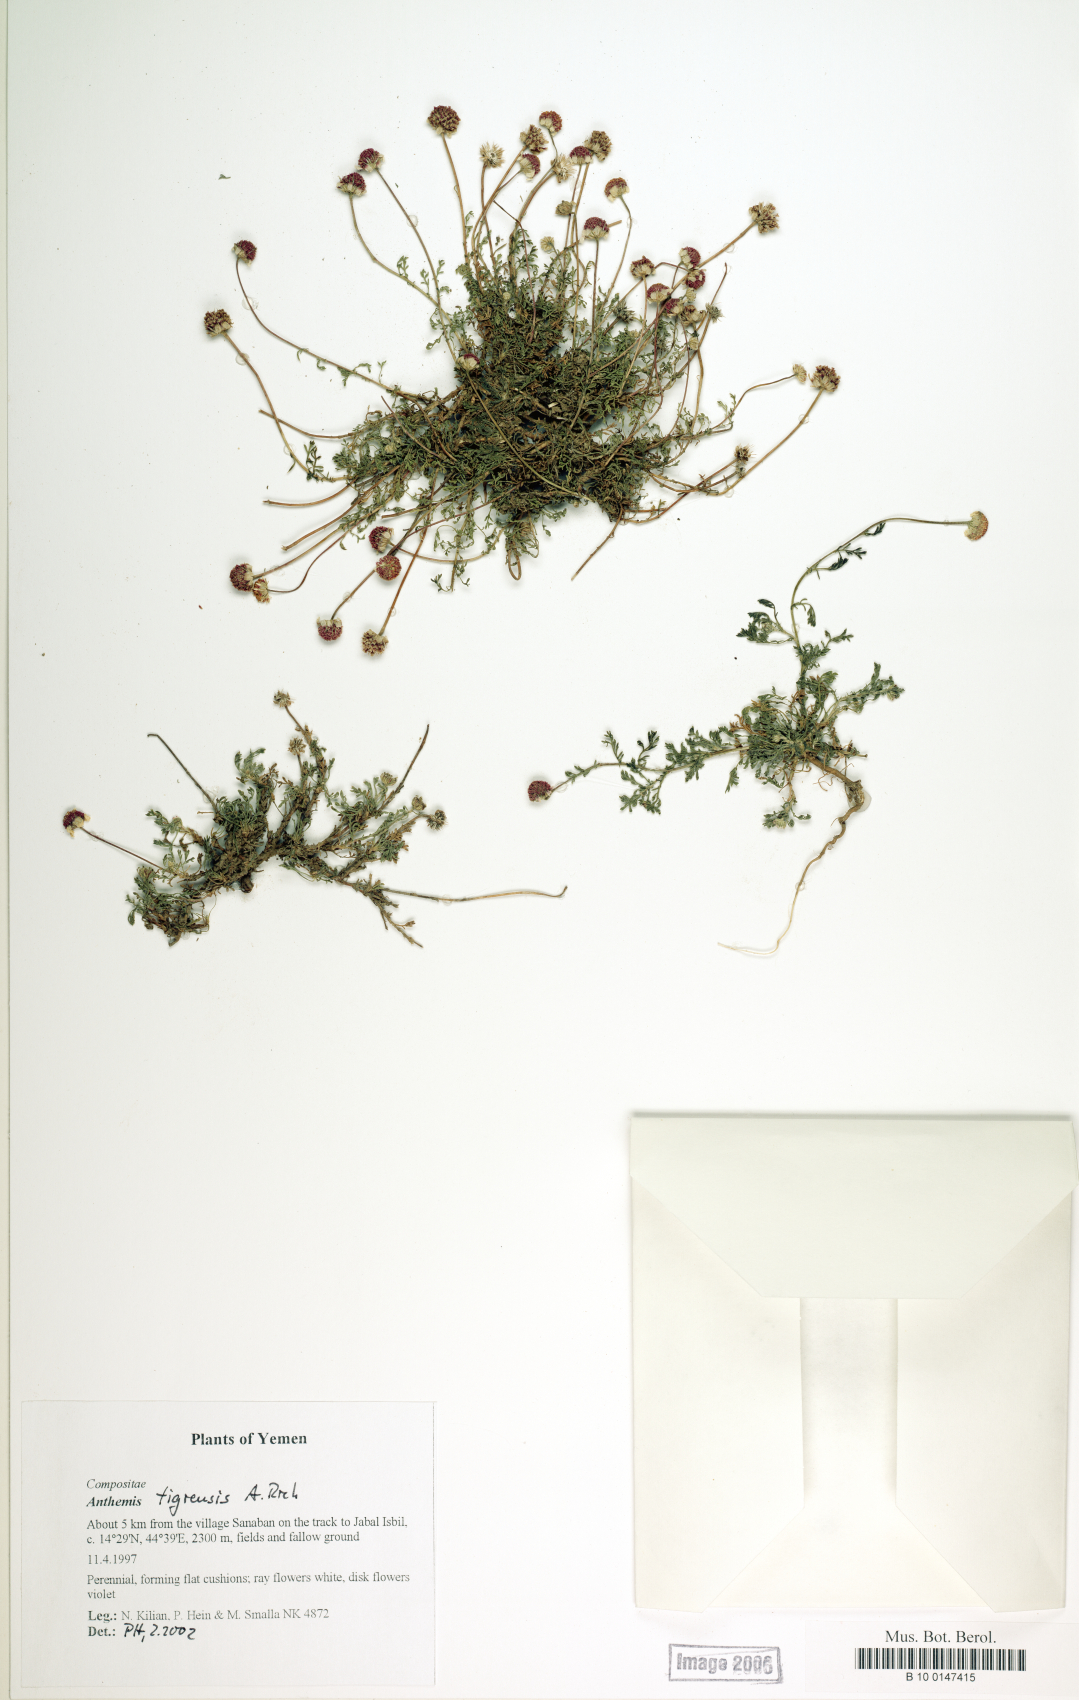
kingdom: Plantae
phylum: Tracheophyta
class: Magnoliopsida
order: Asterales
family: Asteraceae
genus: Anthemis
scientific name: Anthemis tigreensis
